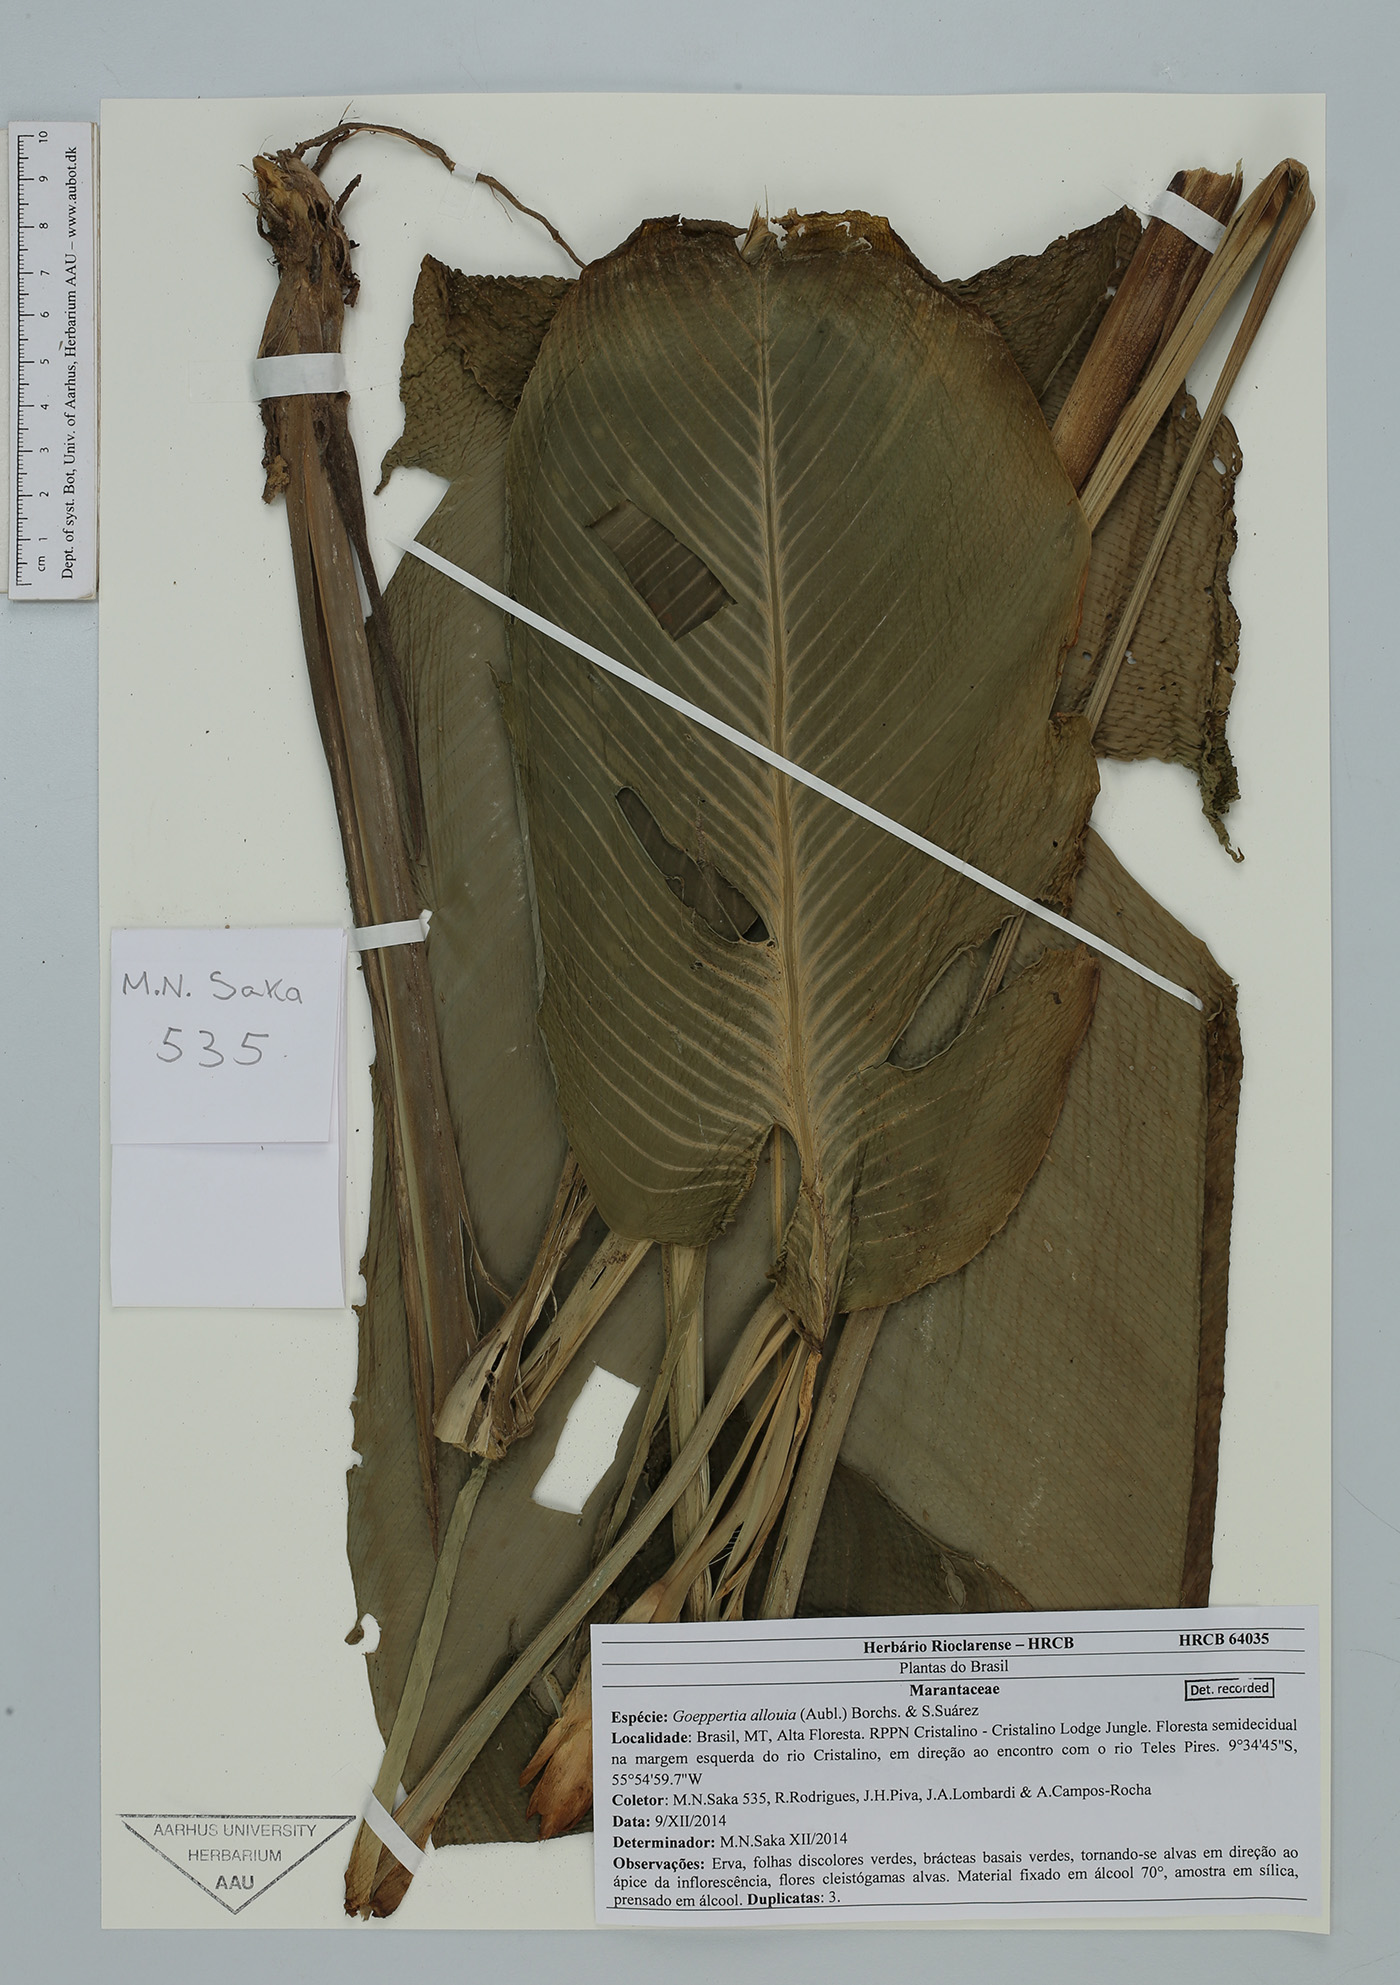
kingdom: Plantae
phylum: Tracheophyta
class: Liliopsida
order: Zingiberales
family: Marantaceae
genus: Goeppertia
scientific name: Goeppertia allouia
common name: Sweet corn-tuber
